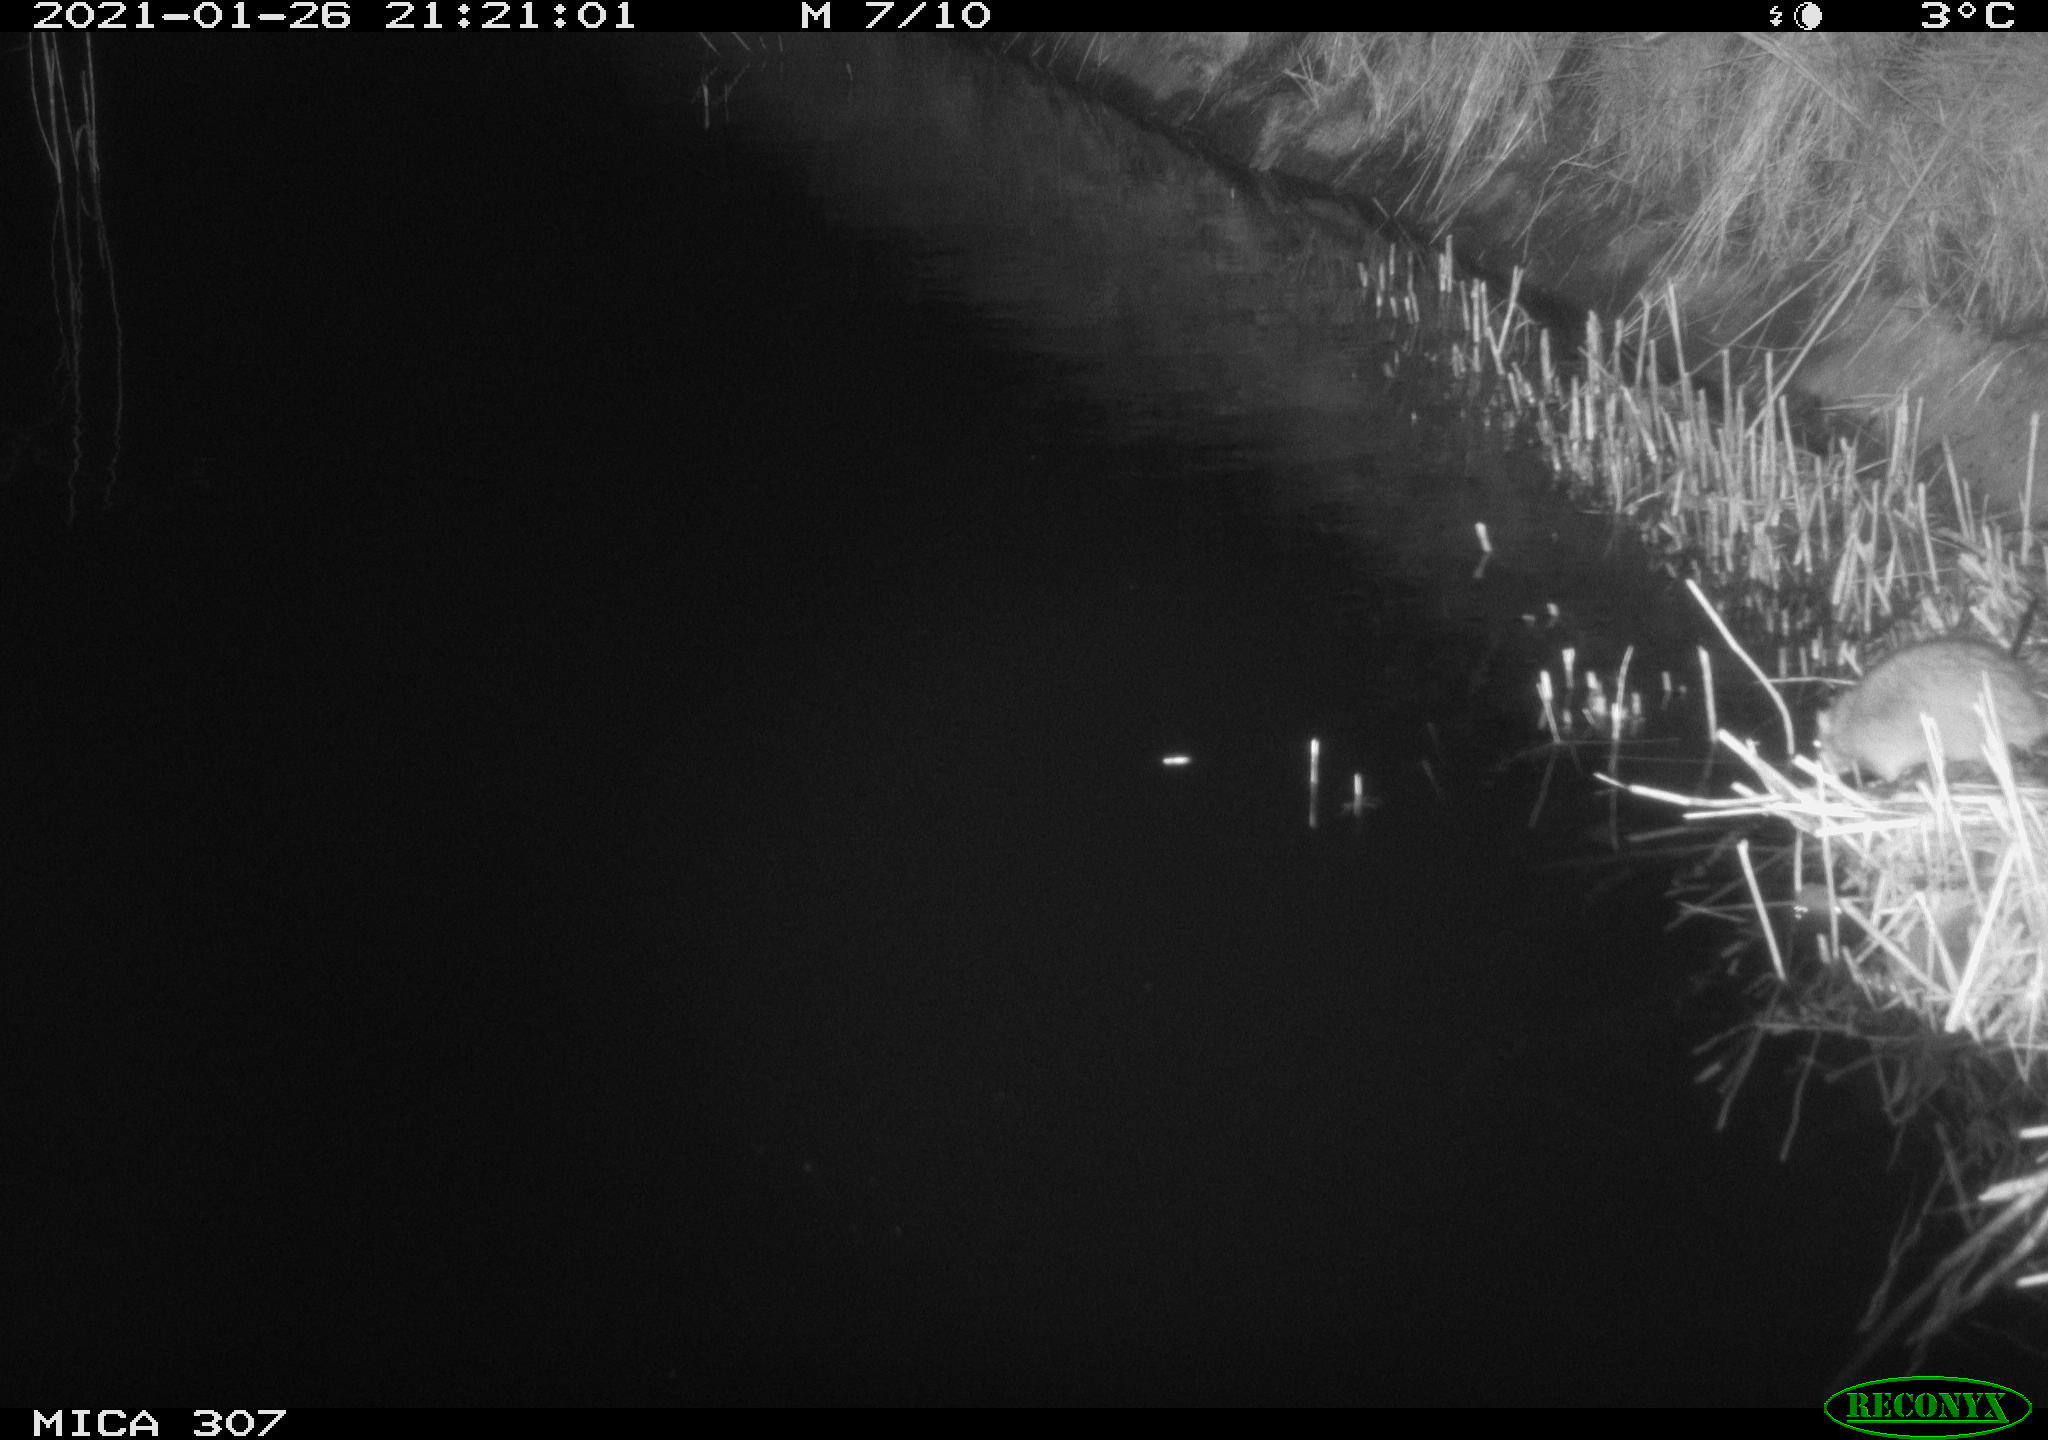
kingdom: Animalia
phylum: Chordata
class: Mammalia
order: Rodentia
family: Muridae
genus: Rattus
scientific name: Rattus norvegicus
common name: Brown rat
